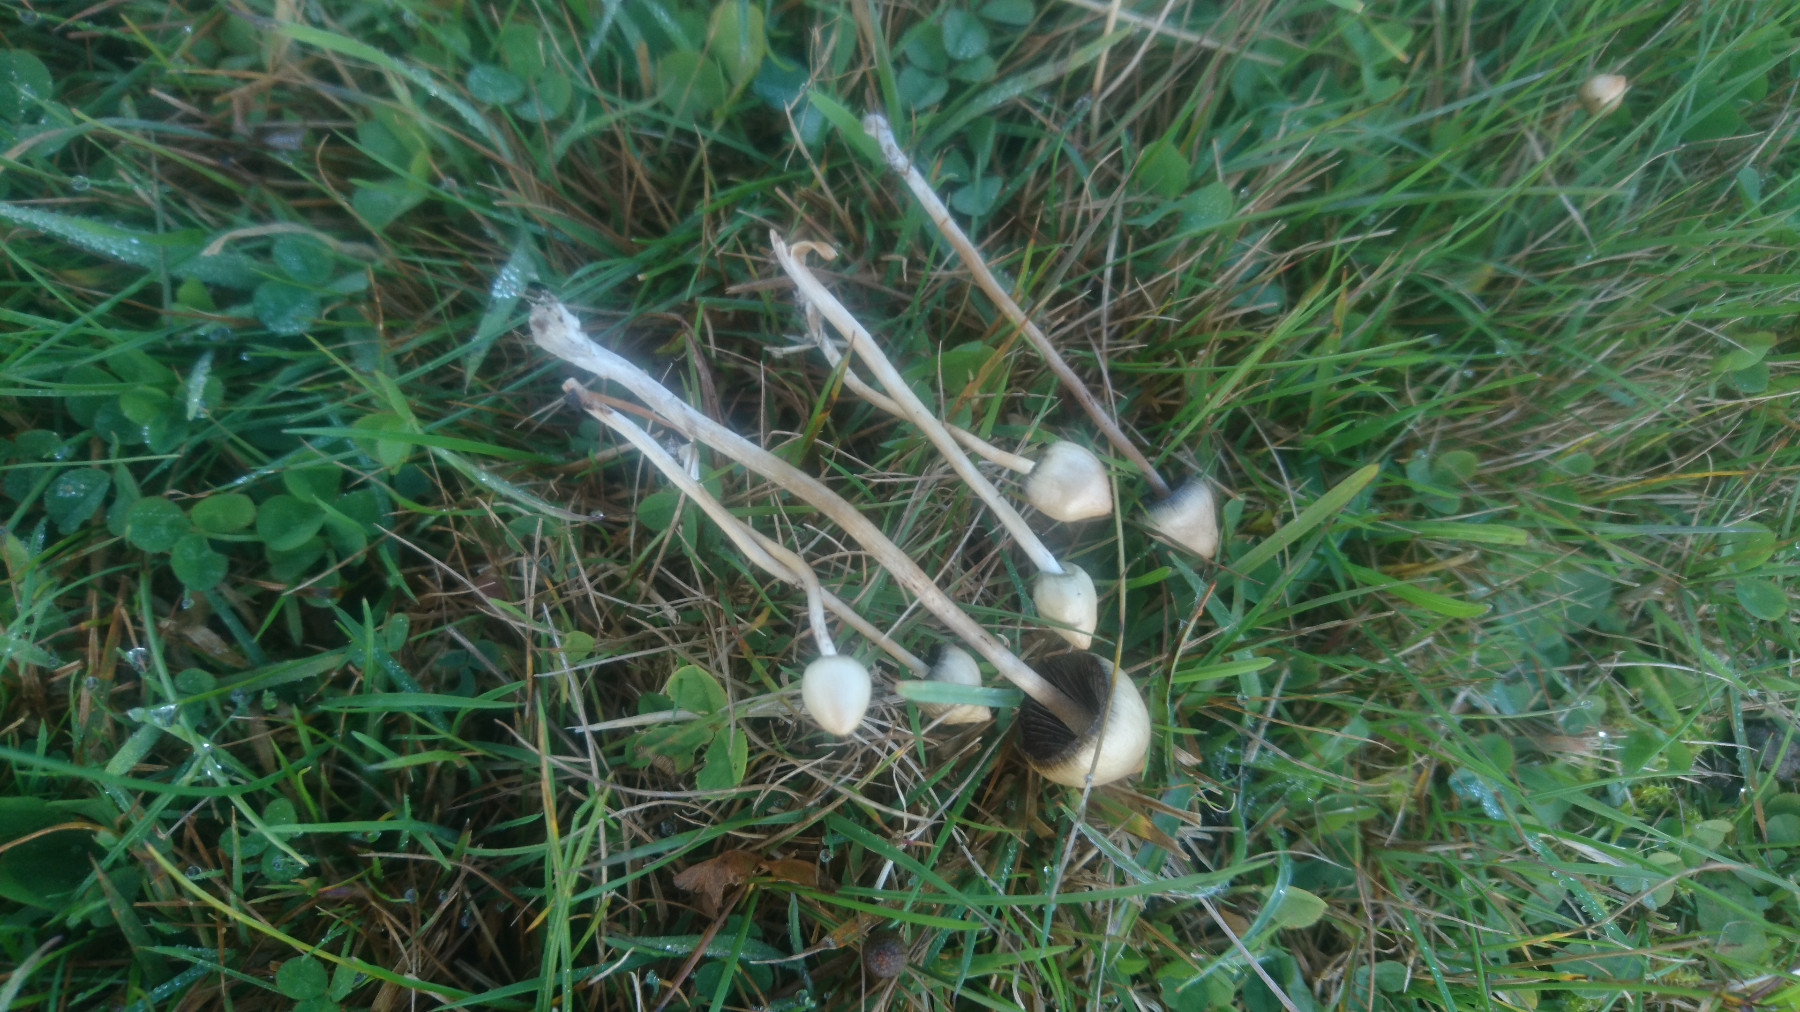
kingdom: Fungi
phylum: Basidiomycota
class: Agaricomycetes
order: Agaricales
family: Hymenogastraceae
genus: Psilocybe
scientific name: Psilocybe semilanceata
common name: spids nøgenhat
